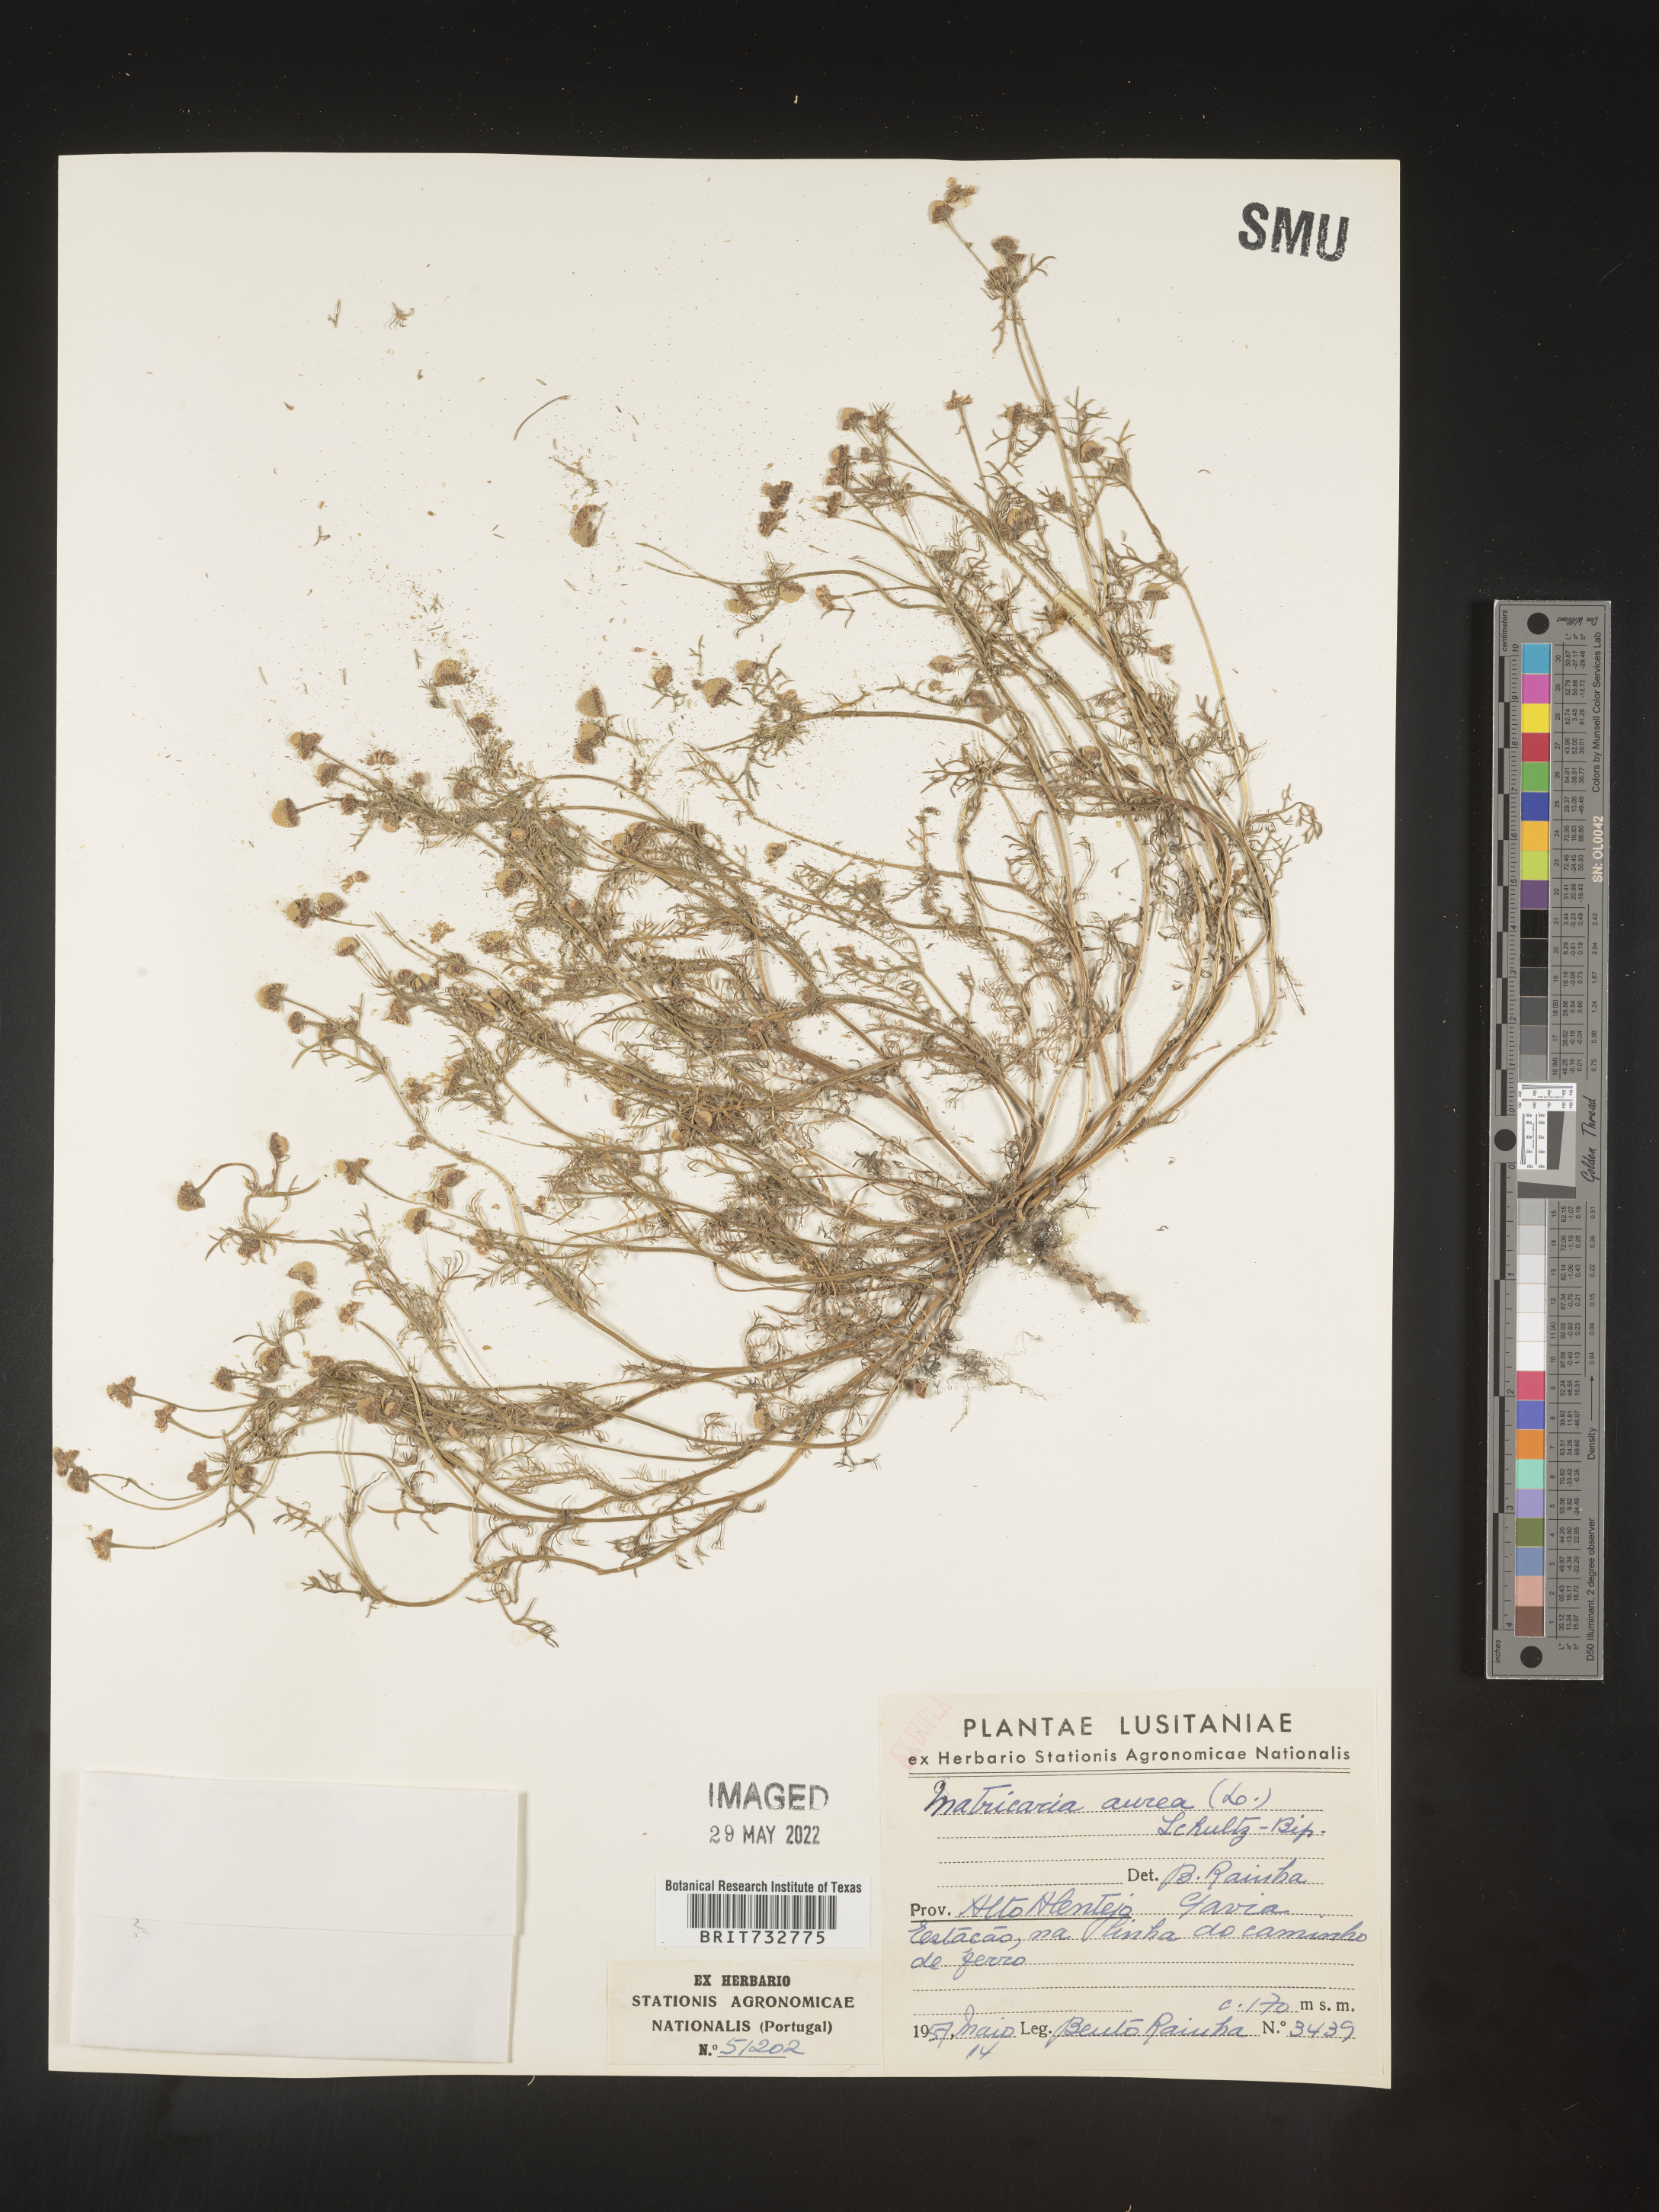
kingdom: Plantae
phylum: Tracheophyta
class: Magnoliopsida
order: Asterales
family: Asteraceae
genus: Matricaria
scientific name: Matricaria
